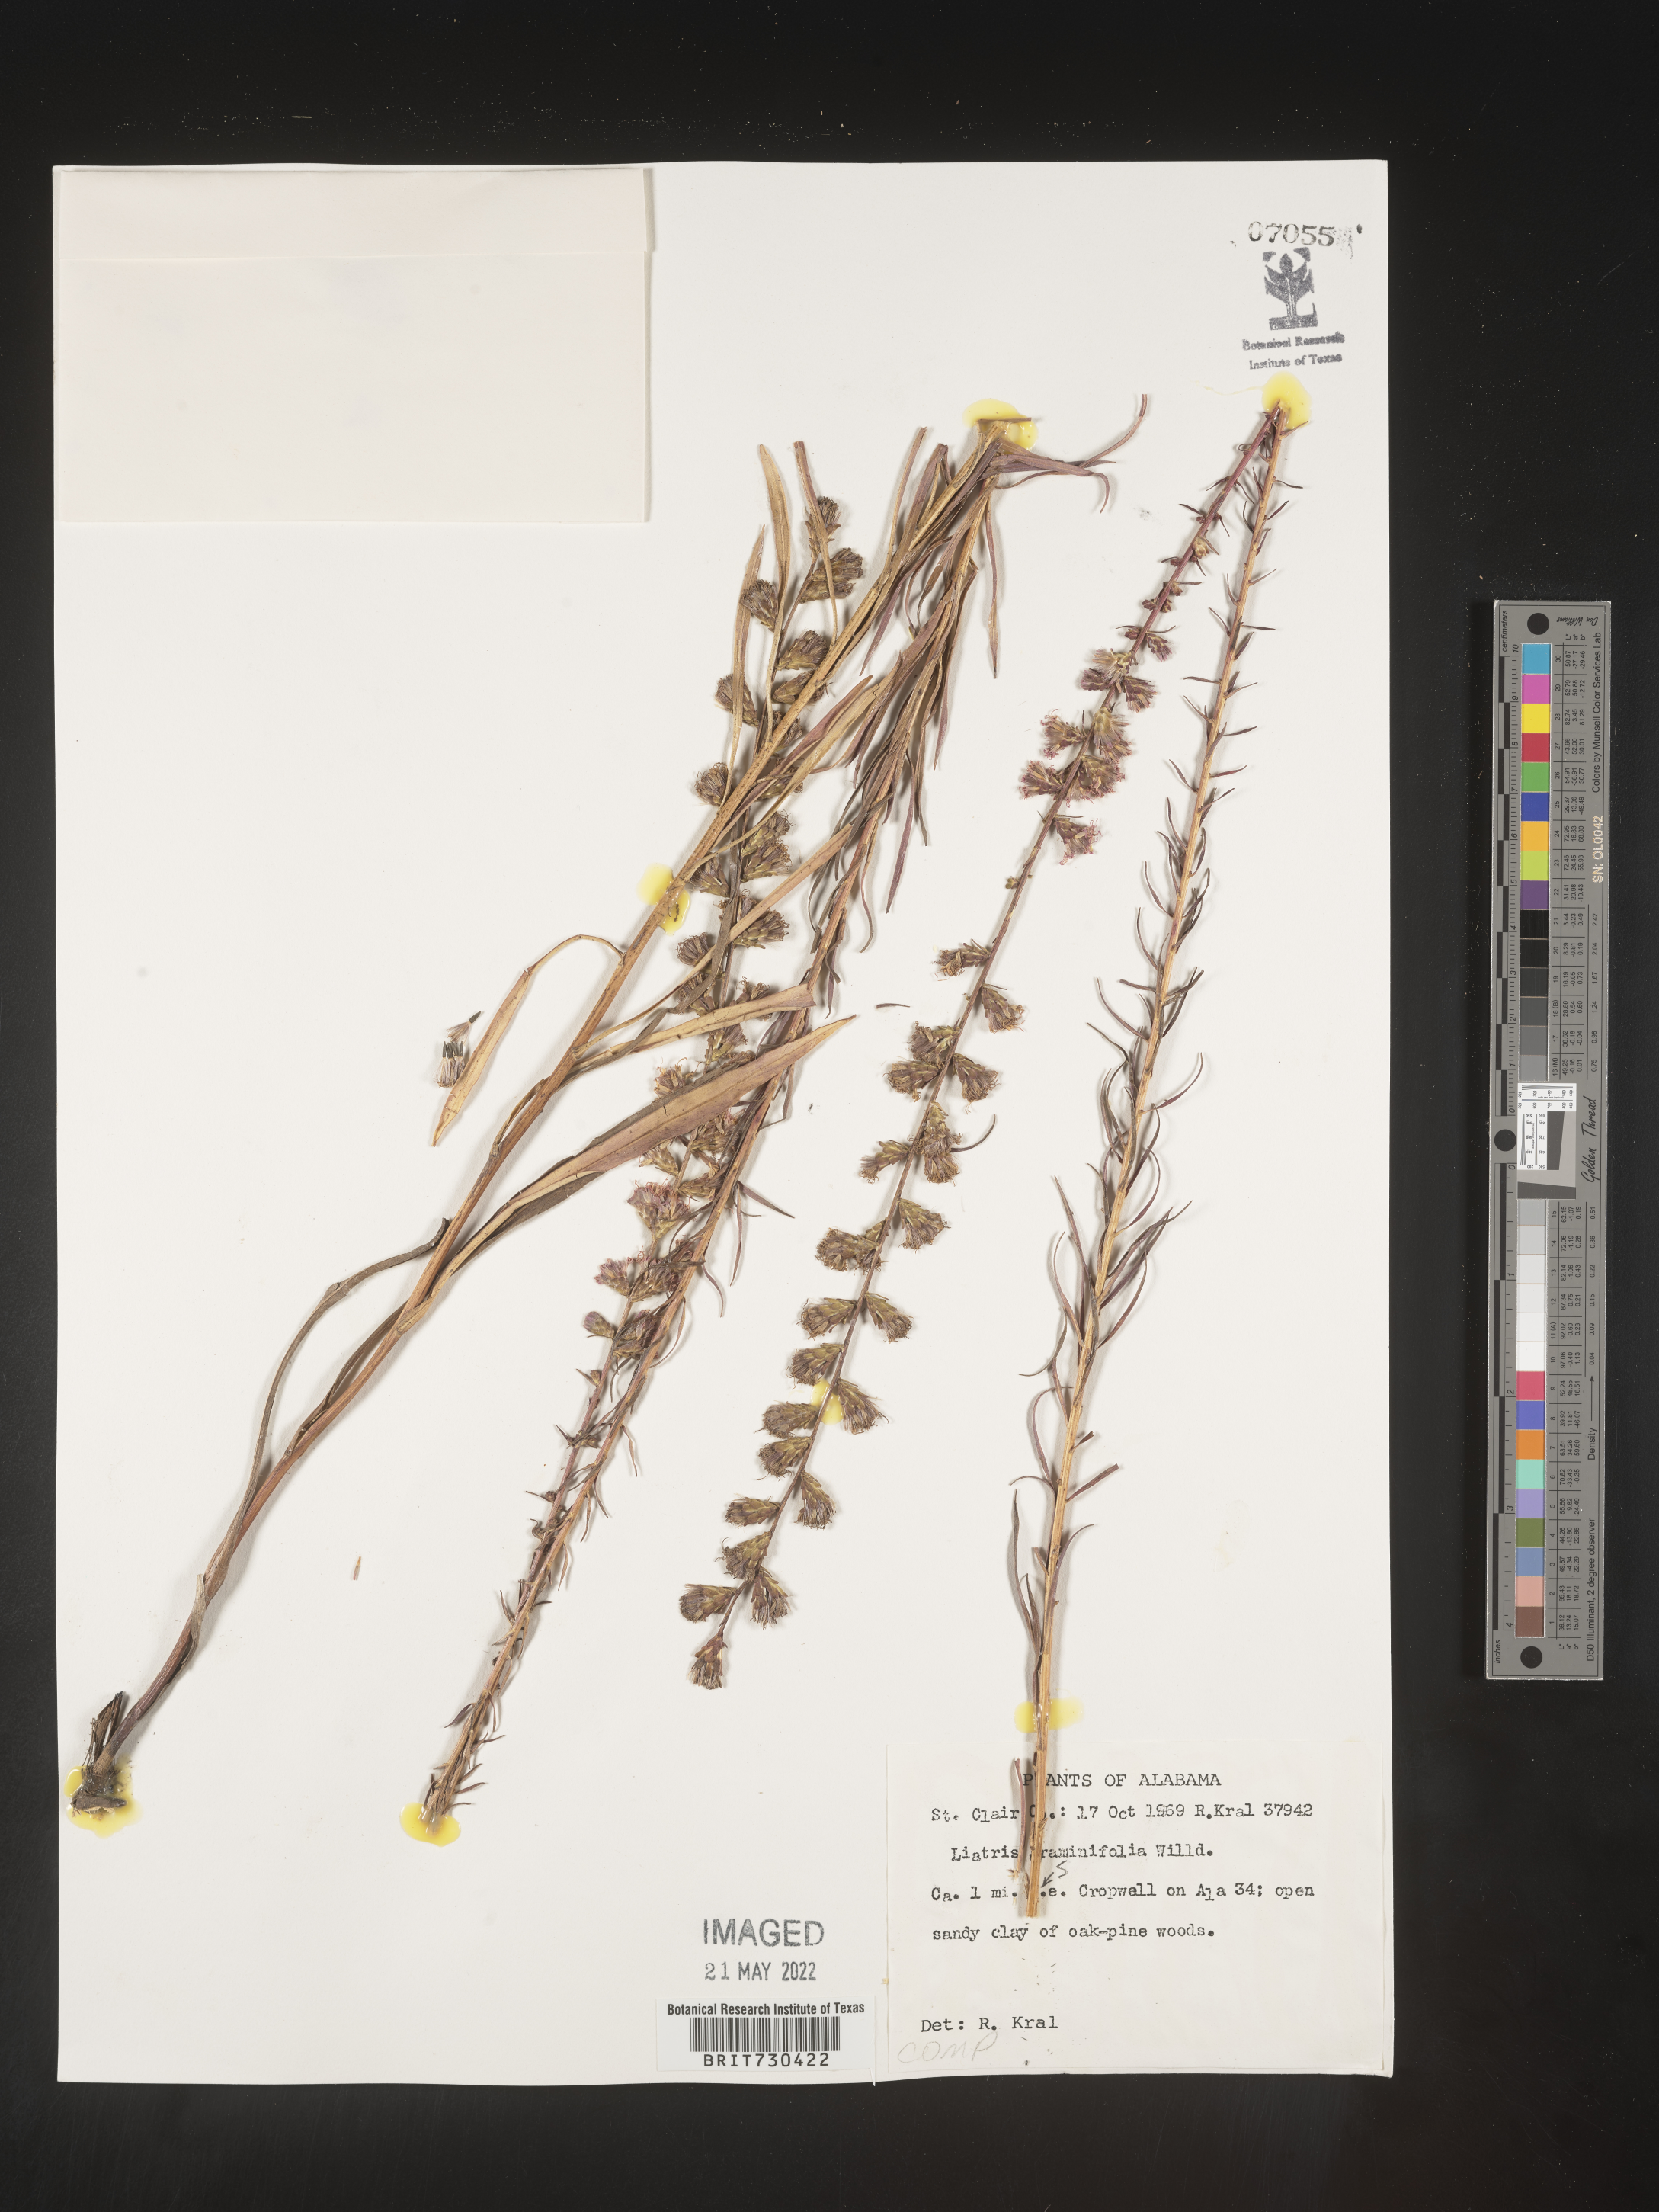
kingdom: Plantae
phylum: Tracheophyta
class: Magnoliopsida
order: Asterales
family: Asteraceae
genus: Liatris
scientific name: Liatris elegantula
